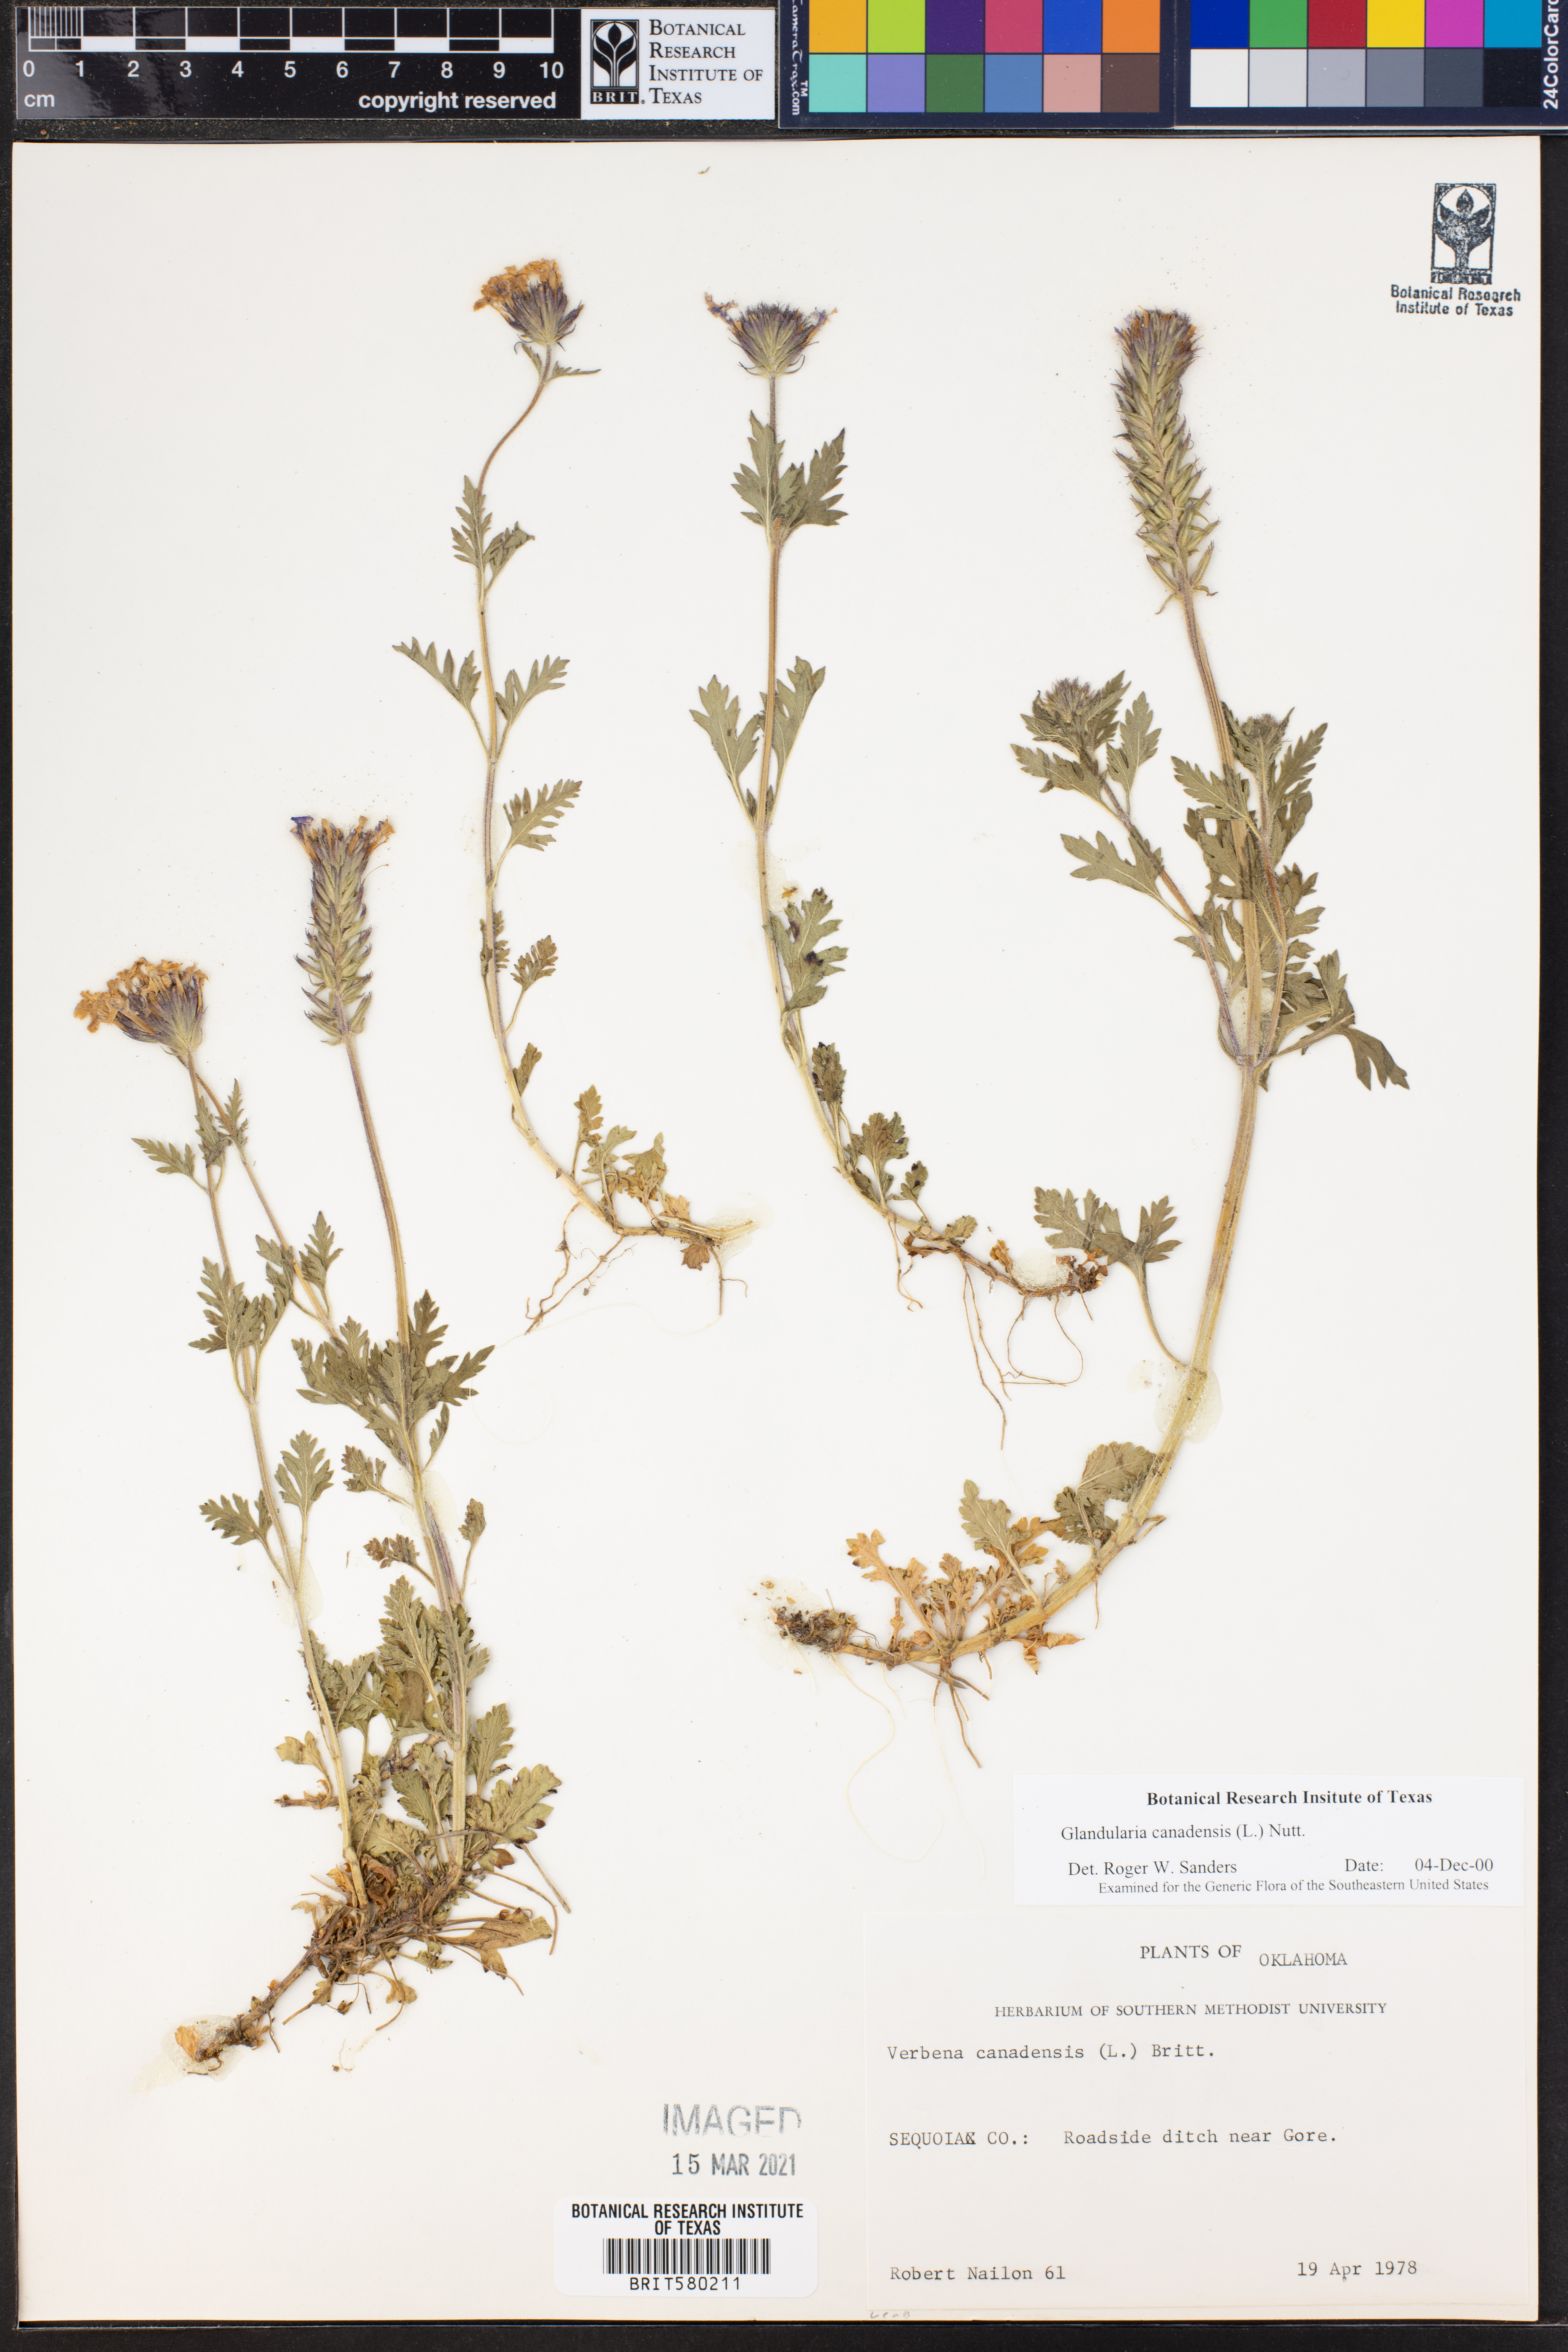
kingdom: Plantae
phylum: Tracheophyta
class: Magnoliopsida
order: Lamiales
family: Verbenaceae
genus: Verbena
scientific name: Verbena canadensis
